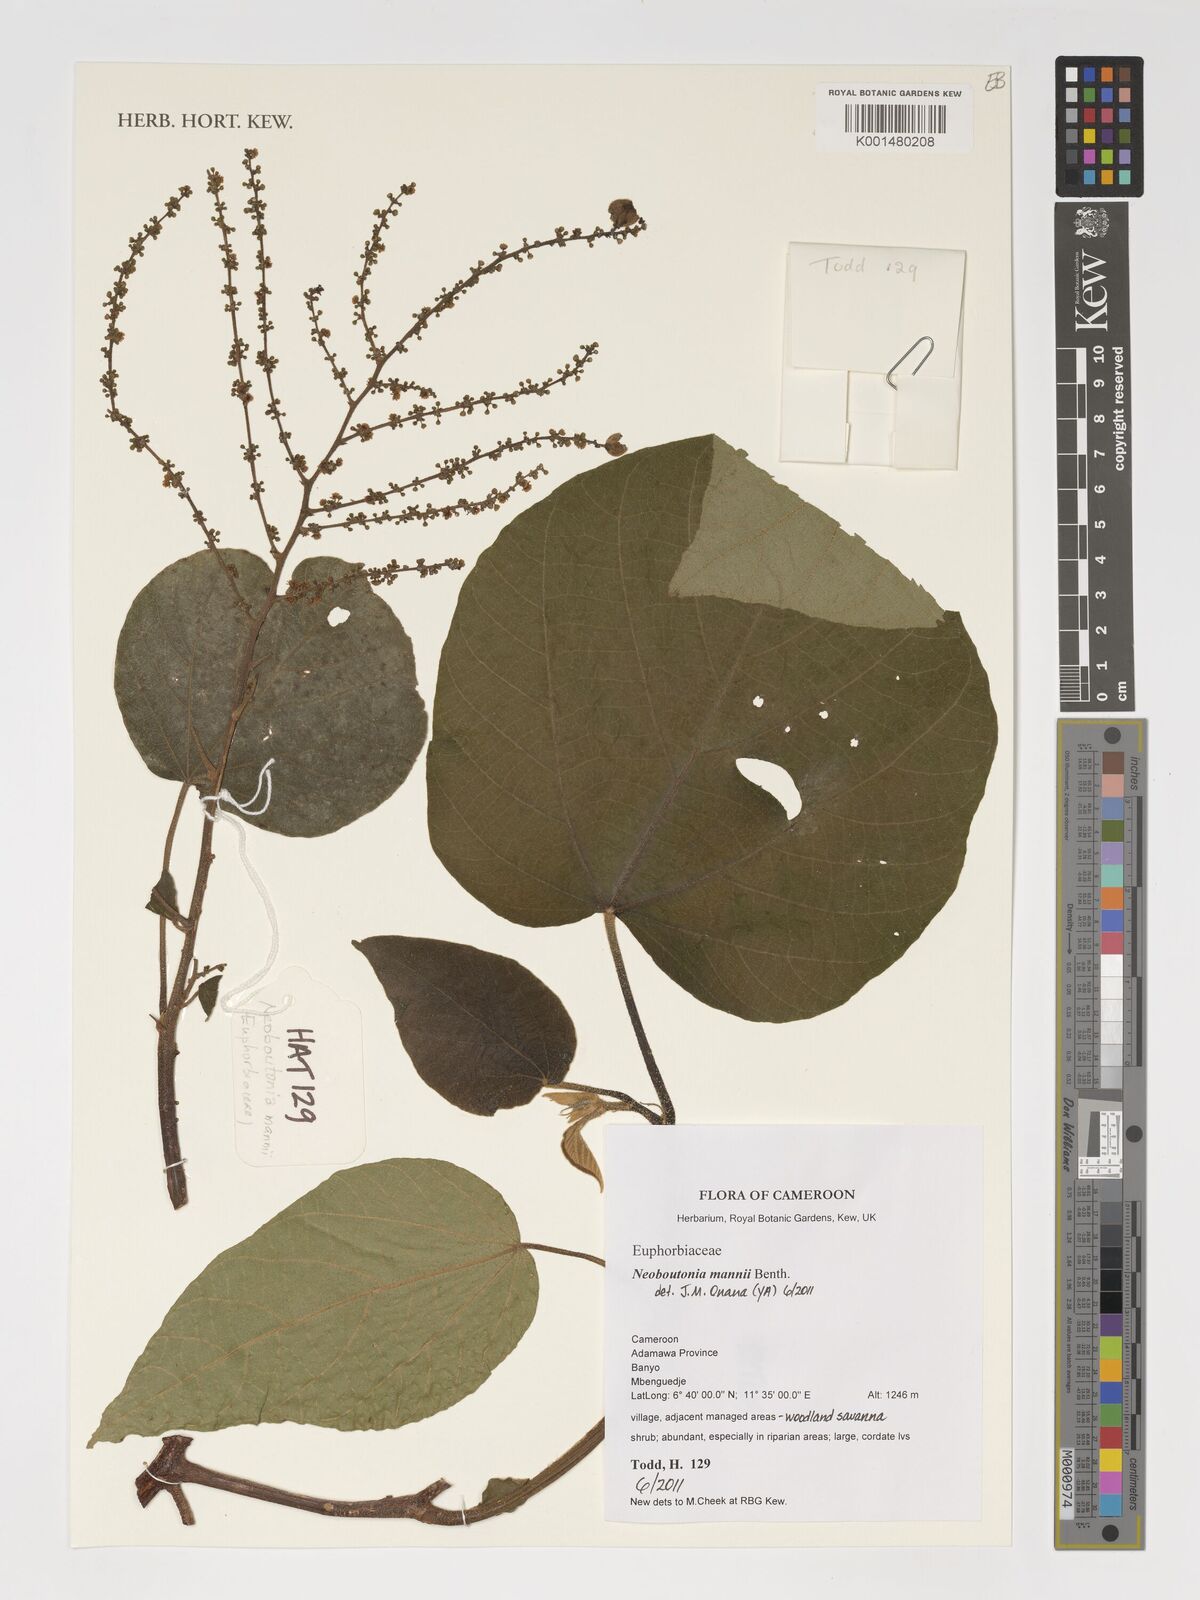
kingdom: Plantae
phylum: Tracheophyta
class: Magnoliopsida
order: Malpighiales
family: Euphorbiaceae
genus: Neoboutonia
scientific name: Neoboutonia mannii
